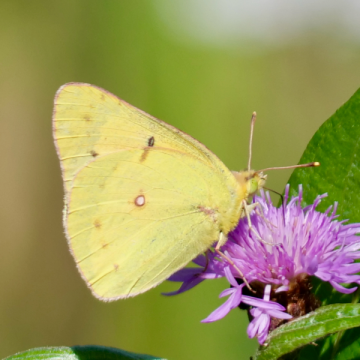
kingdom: Animalia
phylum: Arthropoda
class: Insecta
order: Lepidoptera
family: Pieridae
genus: Colias
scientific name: Colias philodice
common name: Clouded Sulphur
